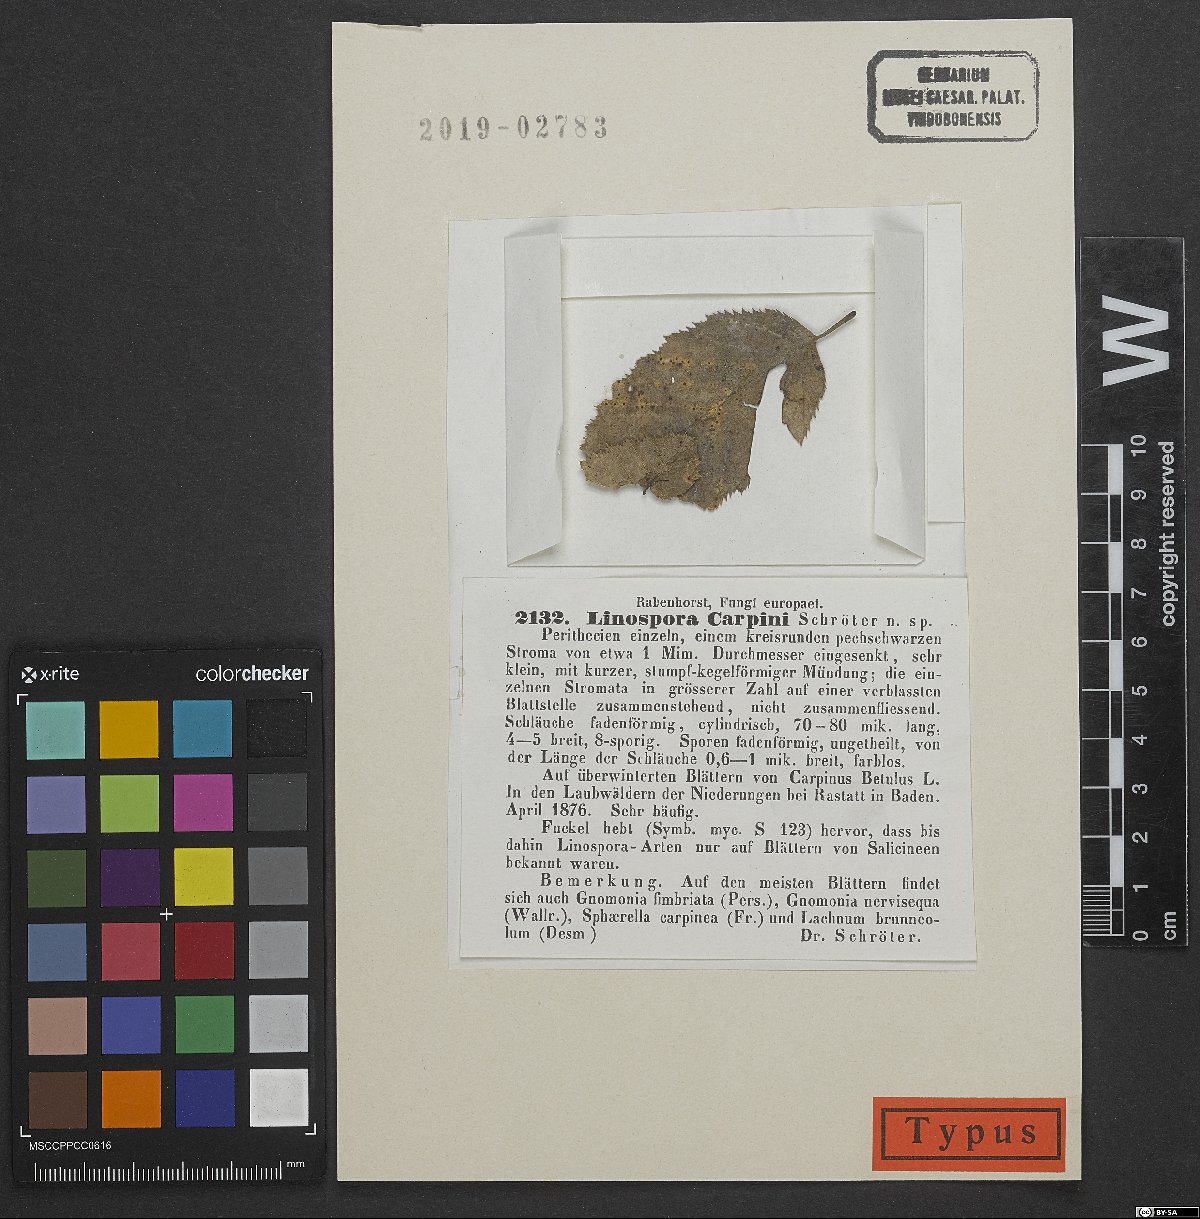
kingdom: Fungi
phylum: Ascomycota
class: Sordariomycetes
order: Xylariales
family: Xylariaceae
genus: Linosporopsis
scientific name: Linosporopsis carpini
